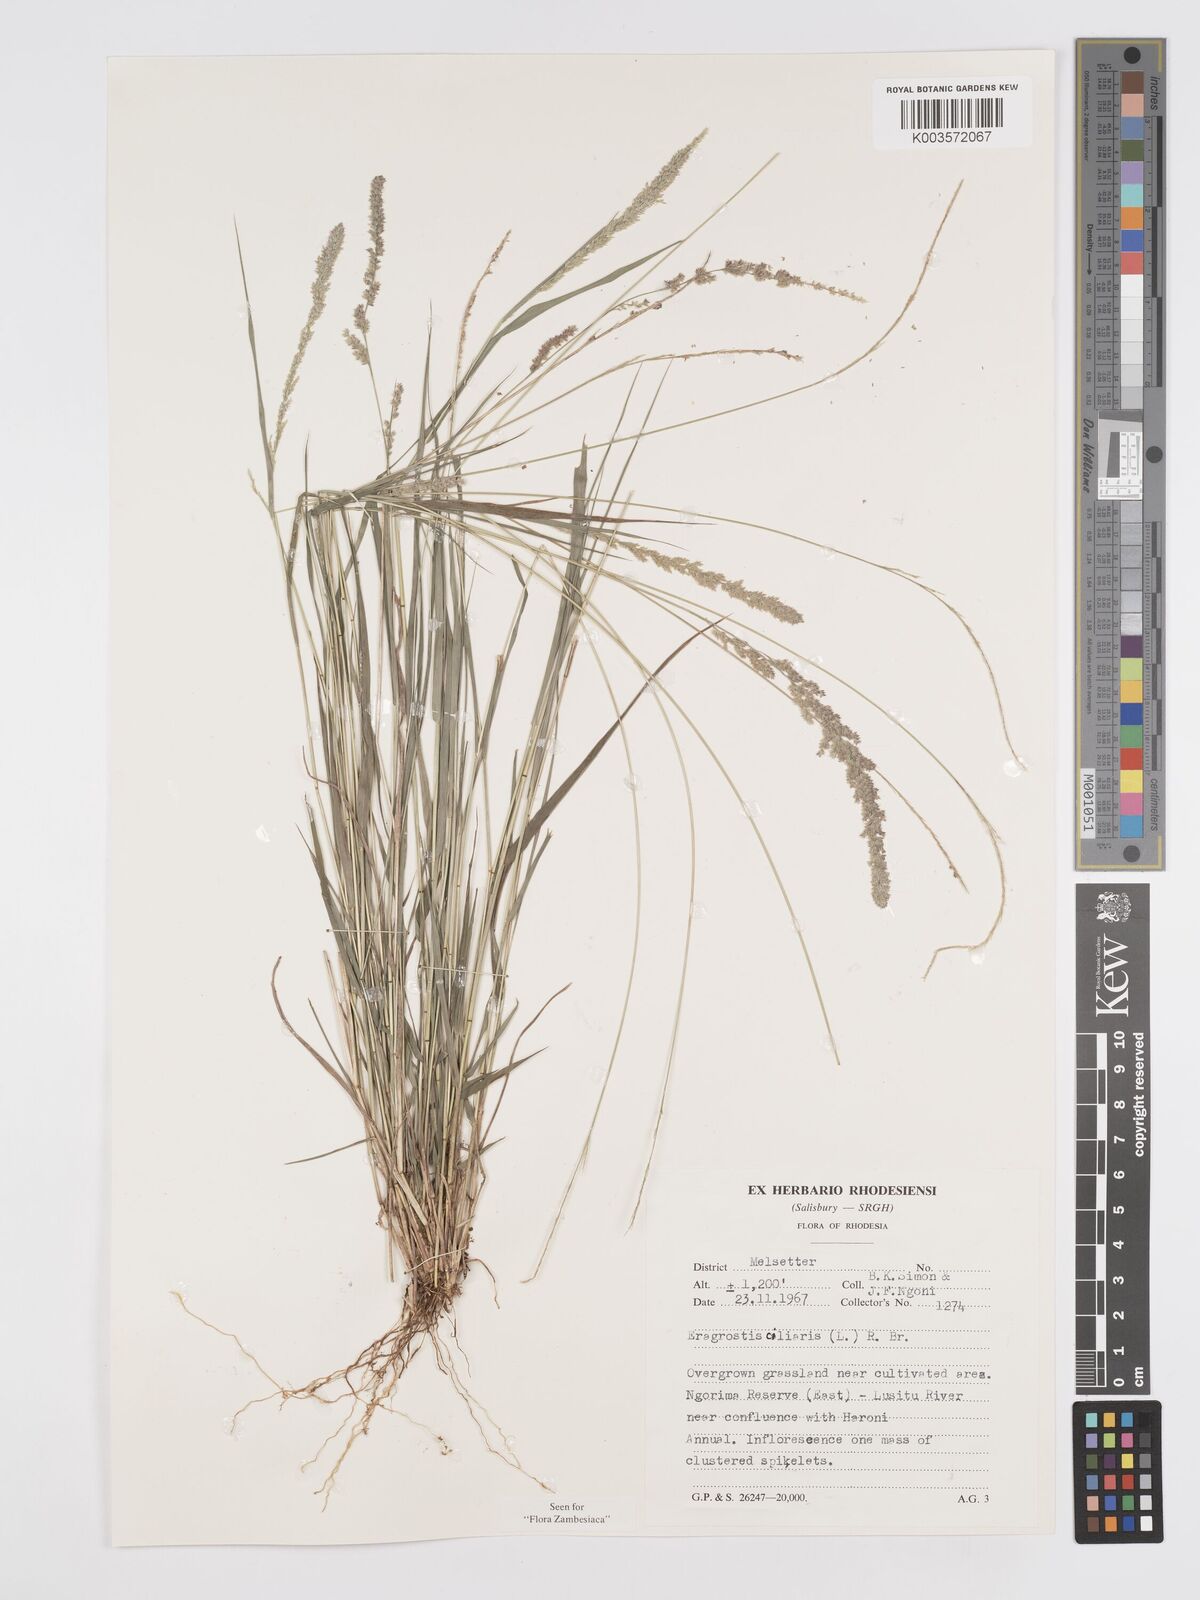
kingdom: Plantae
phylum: Tracheophyta
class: Liliopsida
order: Poales
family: Poaceae
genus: Eragrostis
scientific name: Eragrostis ciliaris
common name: Gophertail lovegrass
